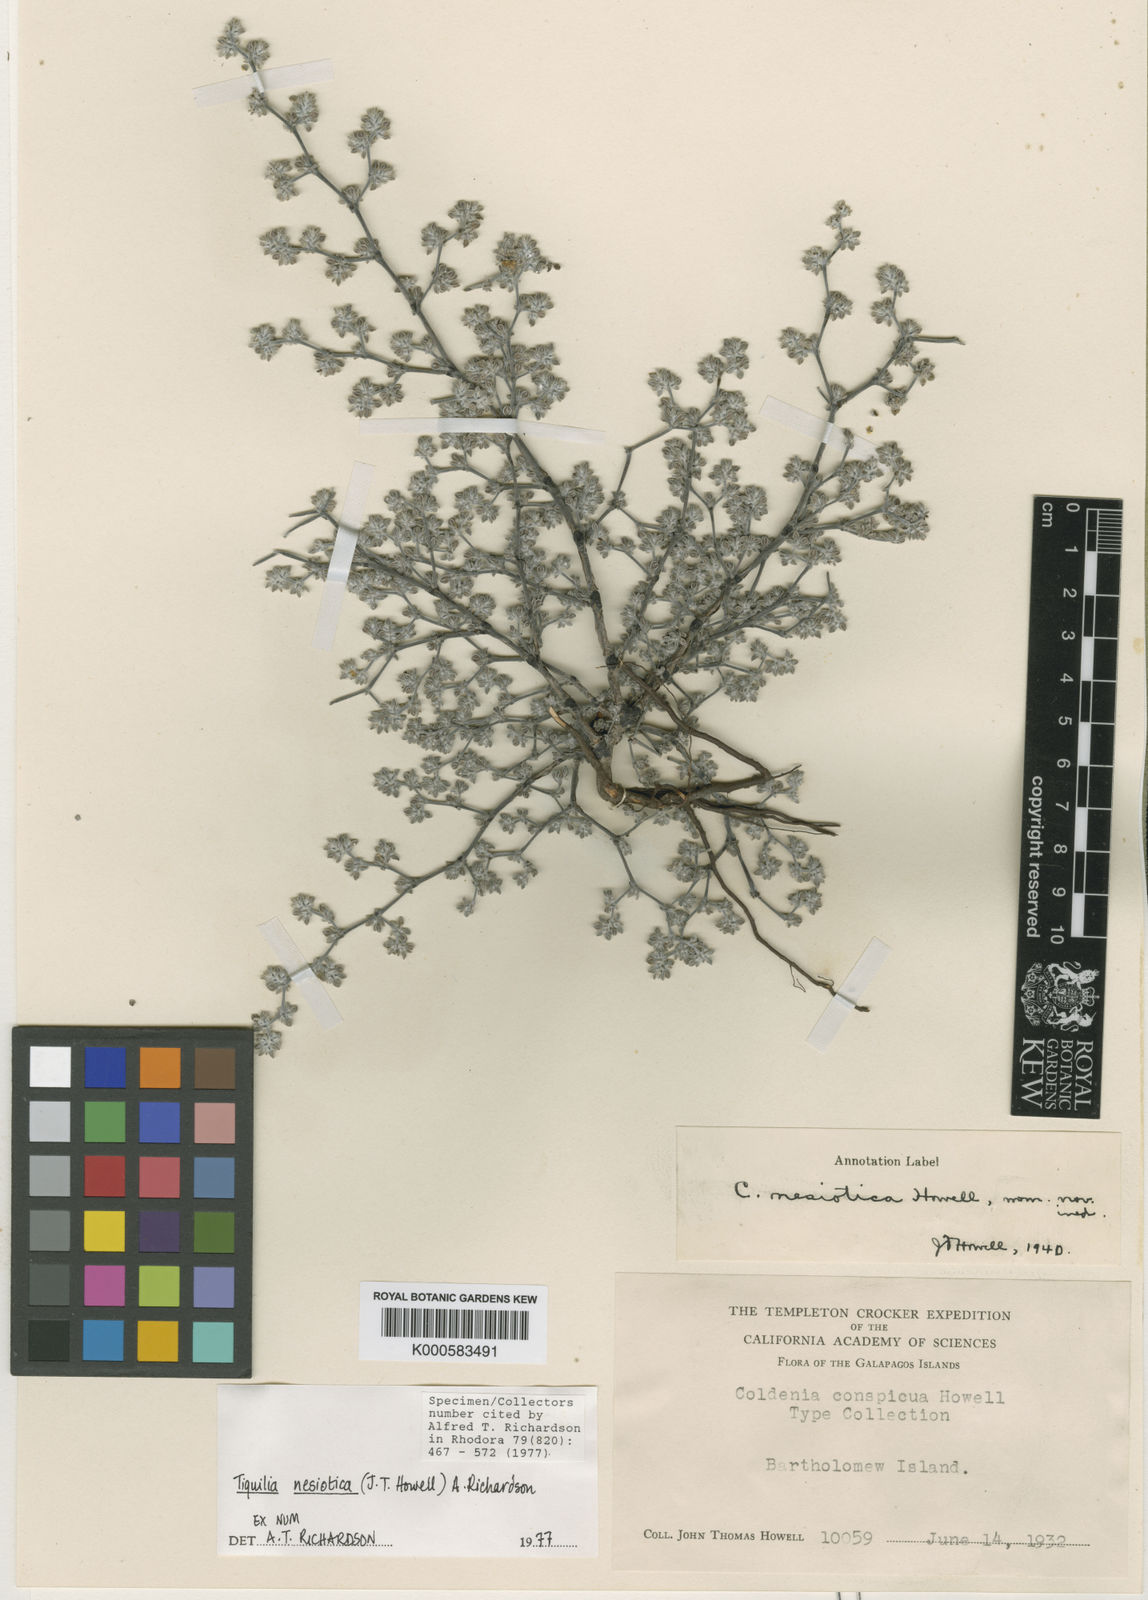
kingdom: Plantae
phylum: Tracheophyta
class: Magnoliopsida
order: Boraginales
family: Ehretiaceae
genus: Tiquilia
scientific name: Tiquilia nesiotica
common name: Gray matplant
